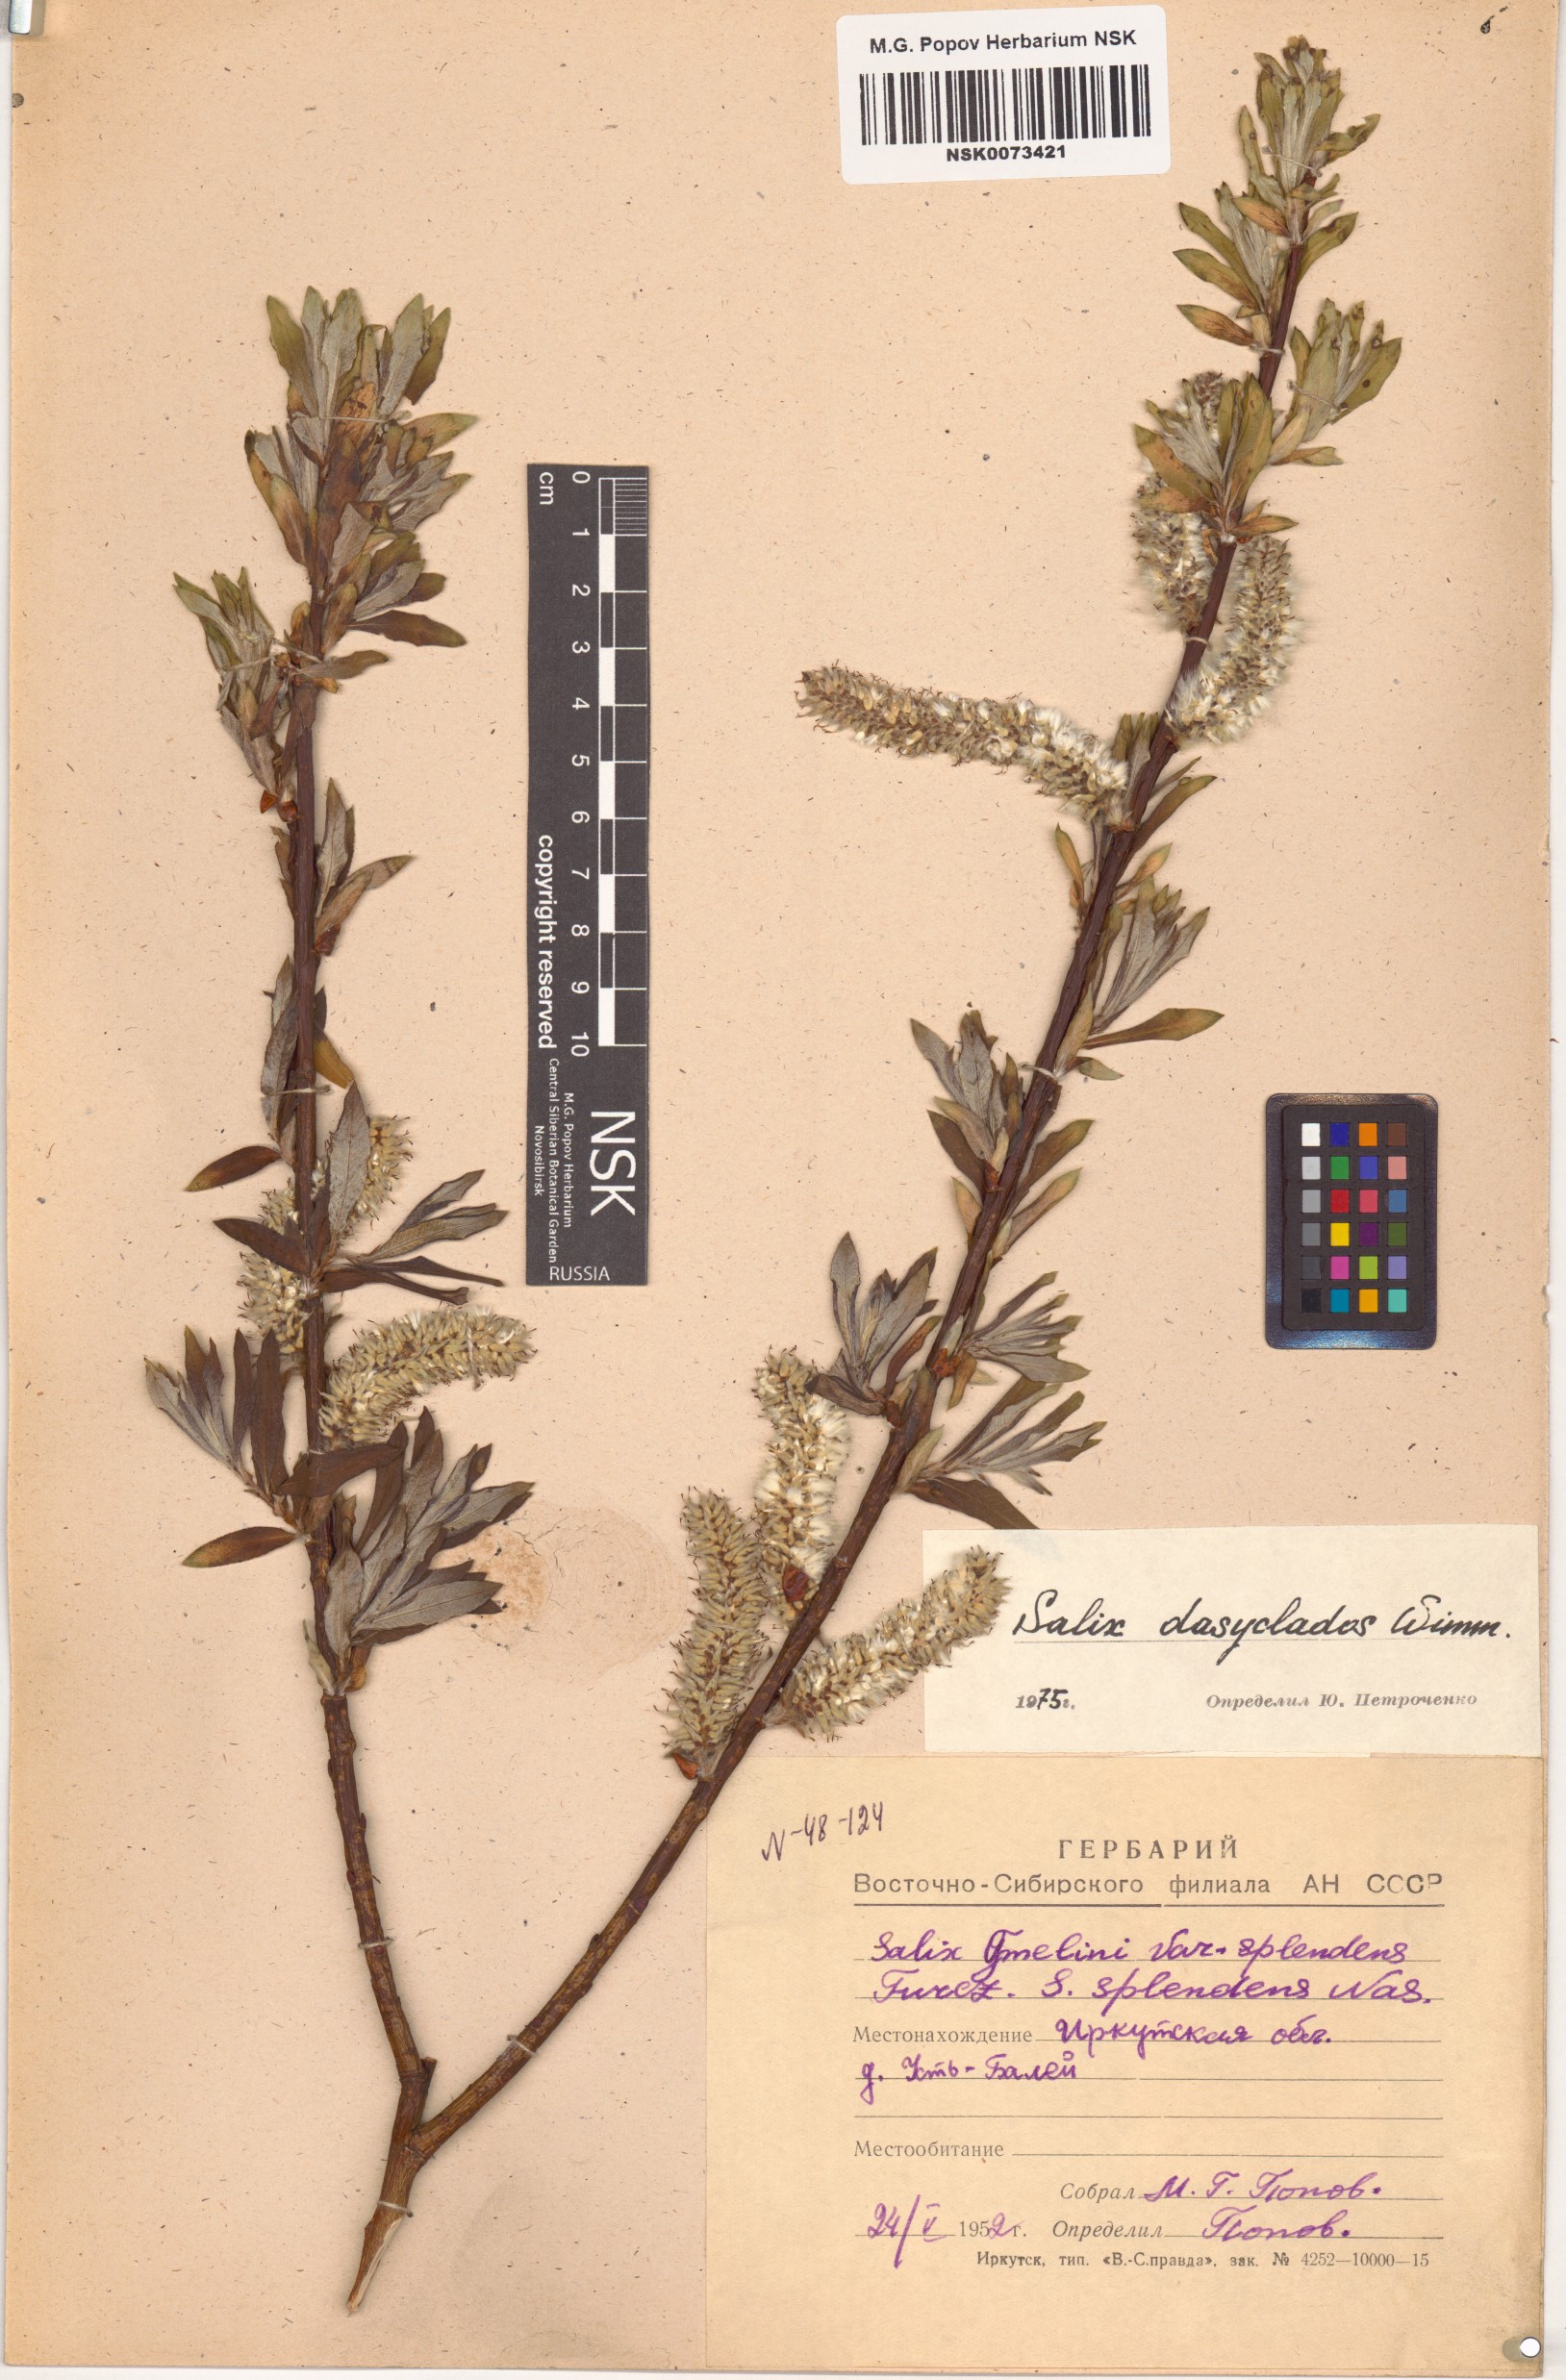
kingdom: Plantae
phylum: Tracheophyta
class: Magnoliopsida
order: Malpighiales
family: Salicaceae
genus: Salix
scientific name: Salix gmelinii
